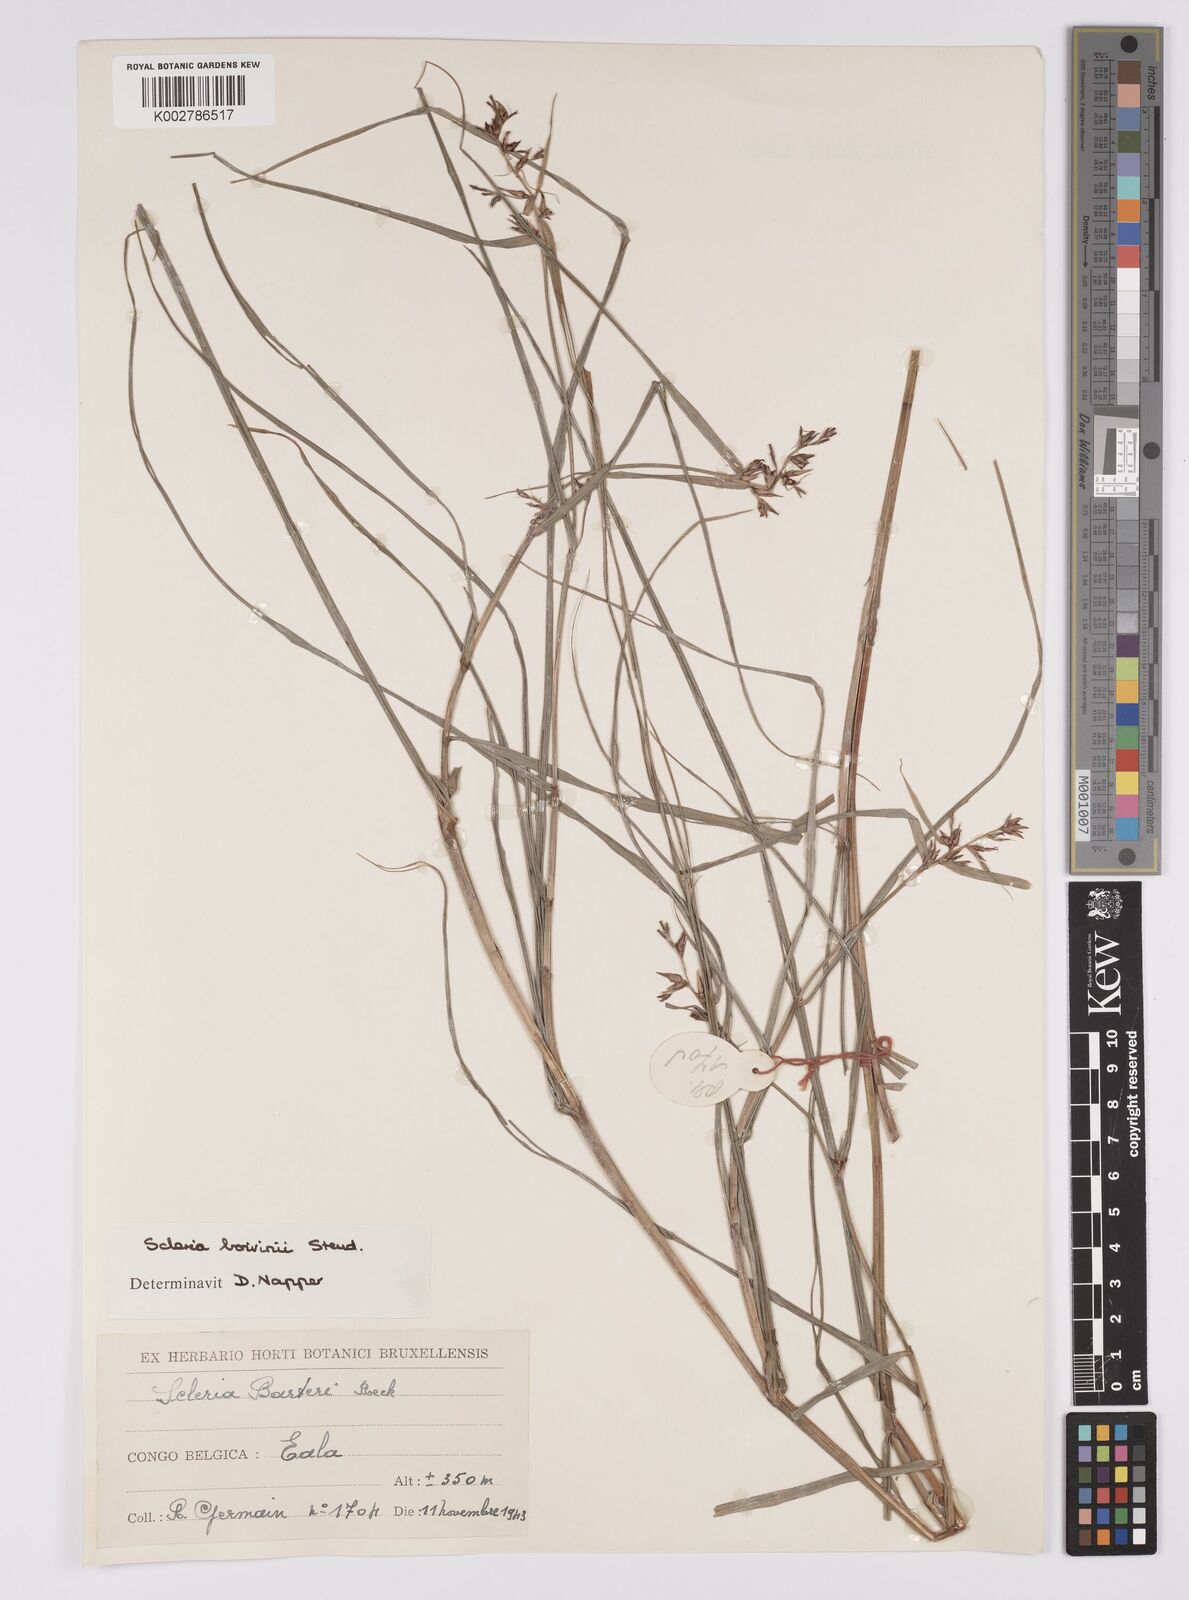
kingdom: Plantae
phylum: Tracheophyta
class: Liliopsida
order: Poales
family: Cyperaceae
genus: Scleria
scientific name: Scleria boivinii
